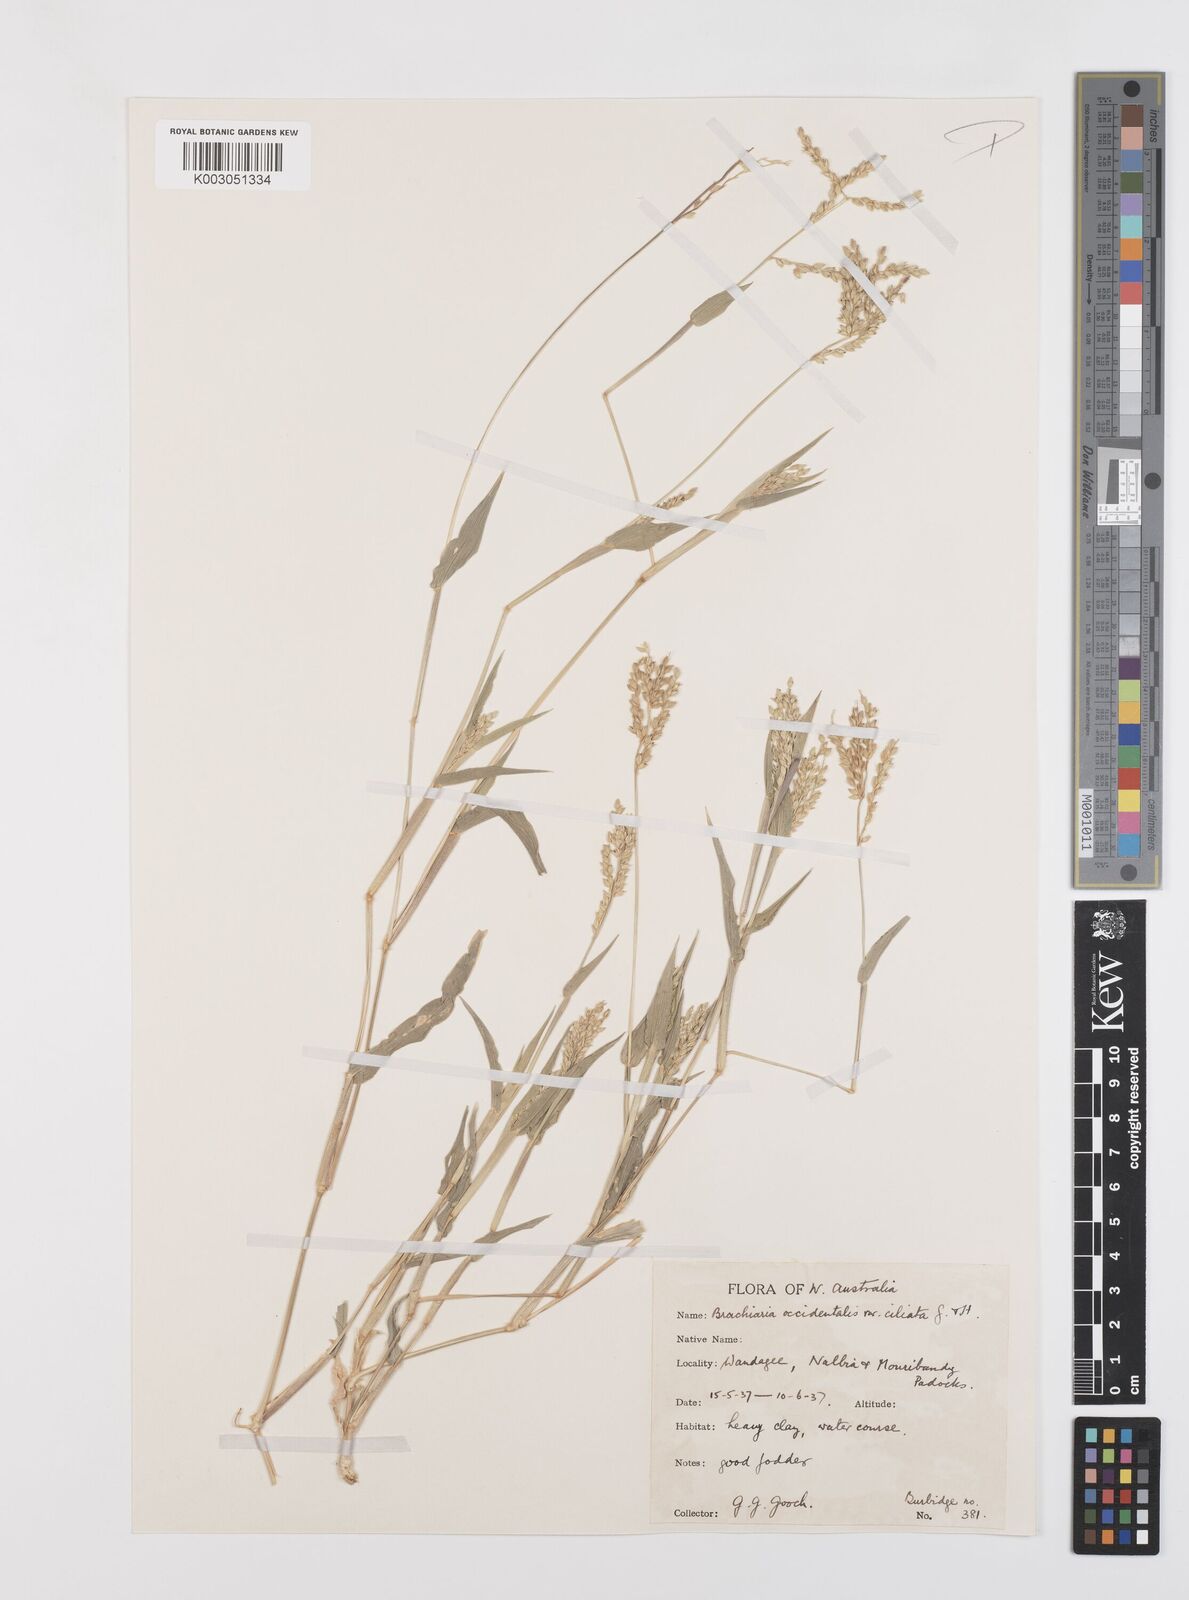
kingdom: Plantae
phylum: Tracheophyta
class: Liliopsida
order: Poales
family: Poaceae
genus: Urochloa
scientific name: Urochloa occidentalis
